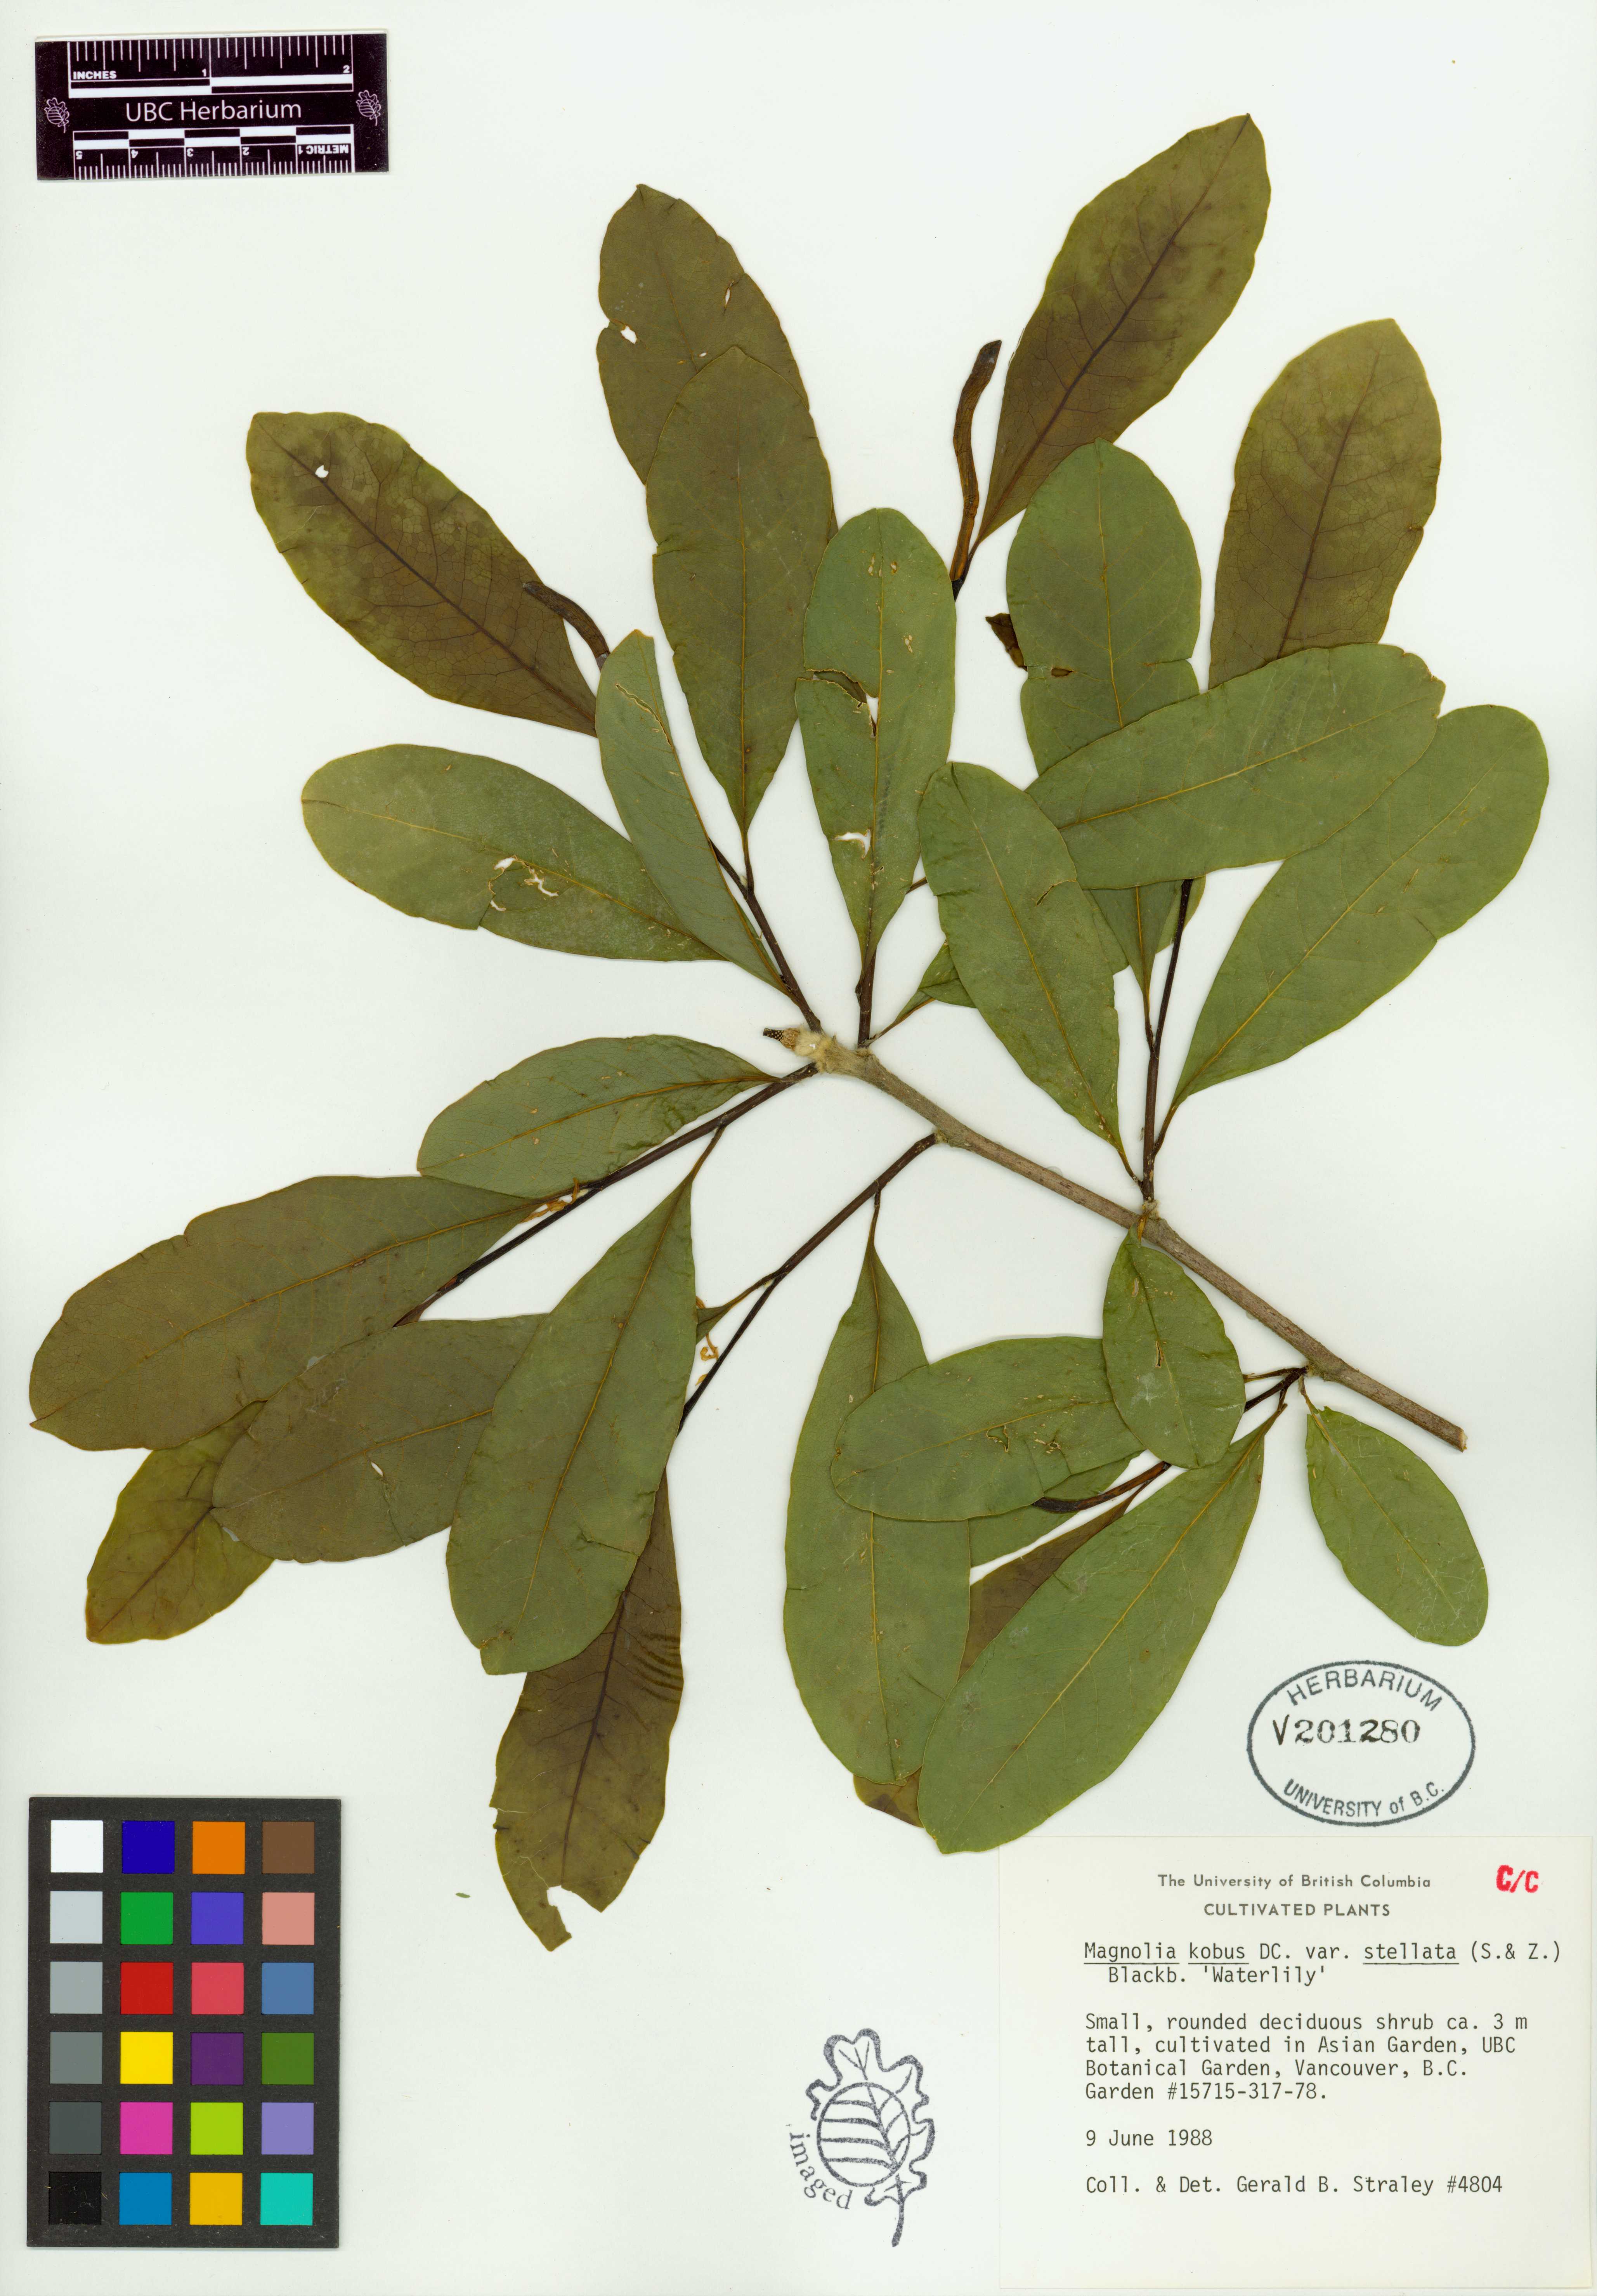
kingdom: Plantae
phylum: Tracheophyta
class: Magnoliopsida
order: Magnoliales
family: Magnoliaceae
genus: Magnolia
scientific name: Magnolia stellata
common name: Star magnolia
